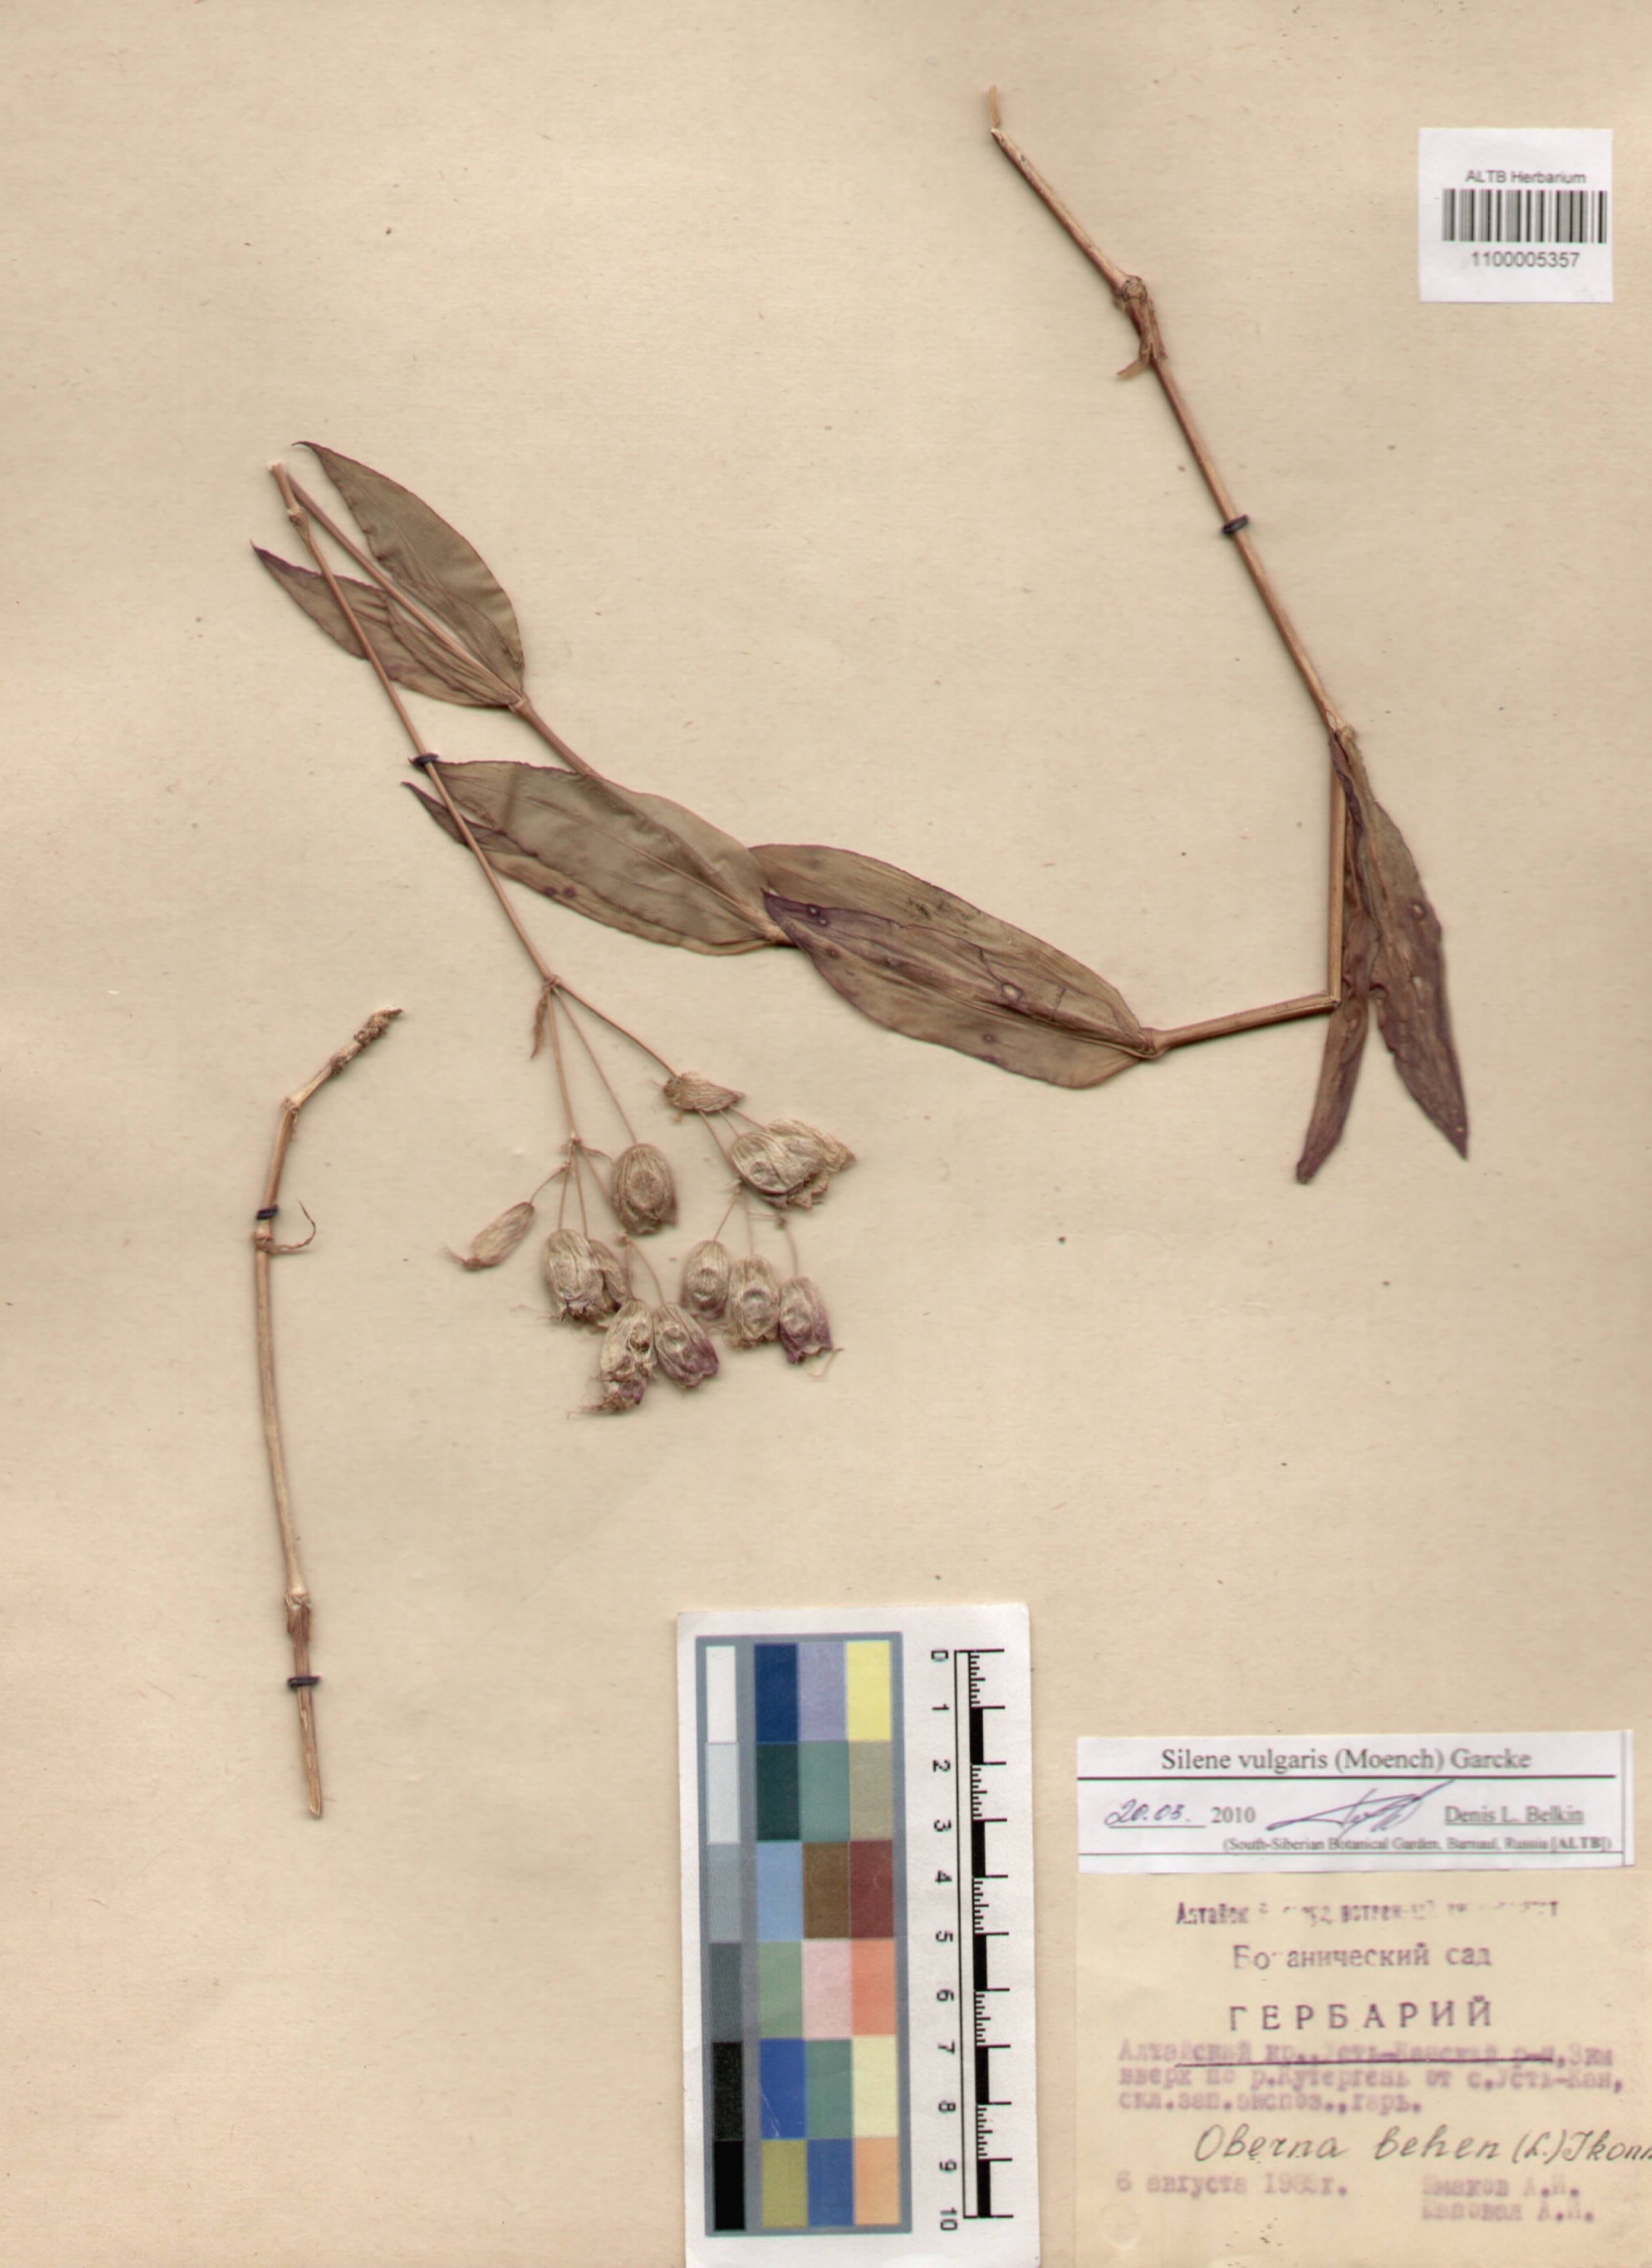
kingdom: Plantae
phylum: Tracheophyta
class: Magnoliopsida
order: Caryophyllales
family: Caryophyllaceae
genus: Silene
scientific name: Silene vulgaris
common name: Bladder campion
